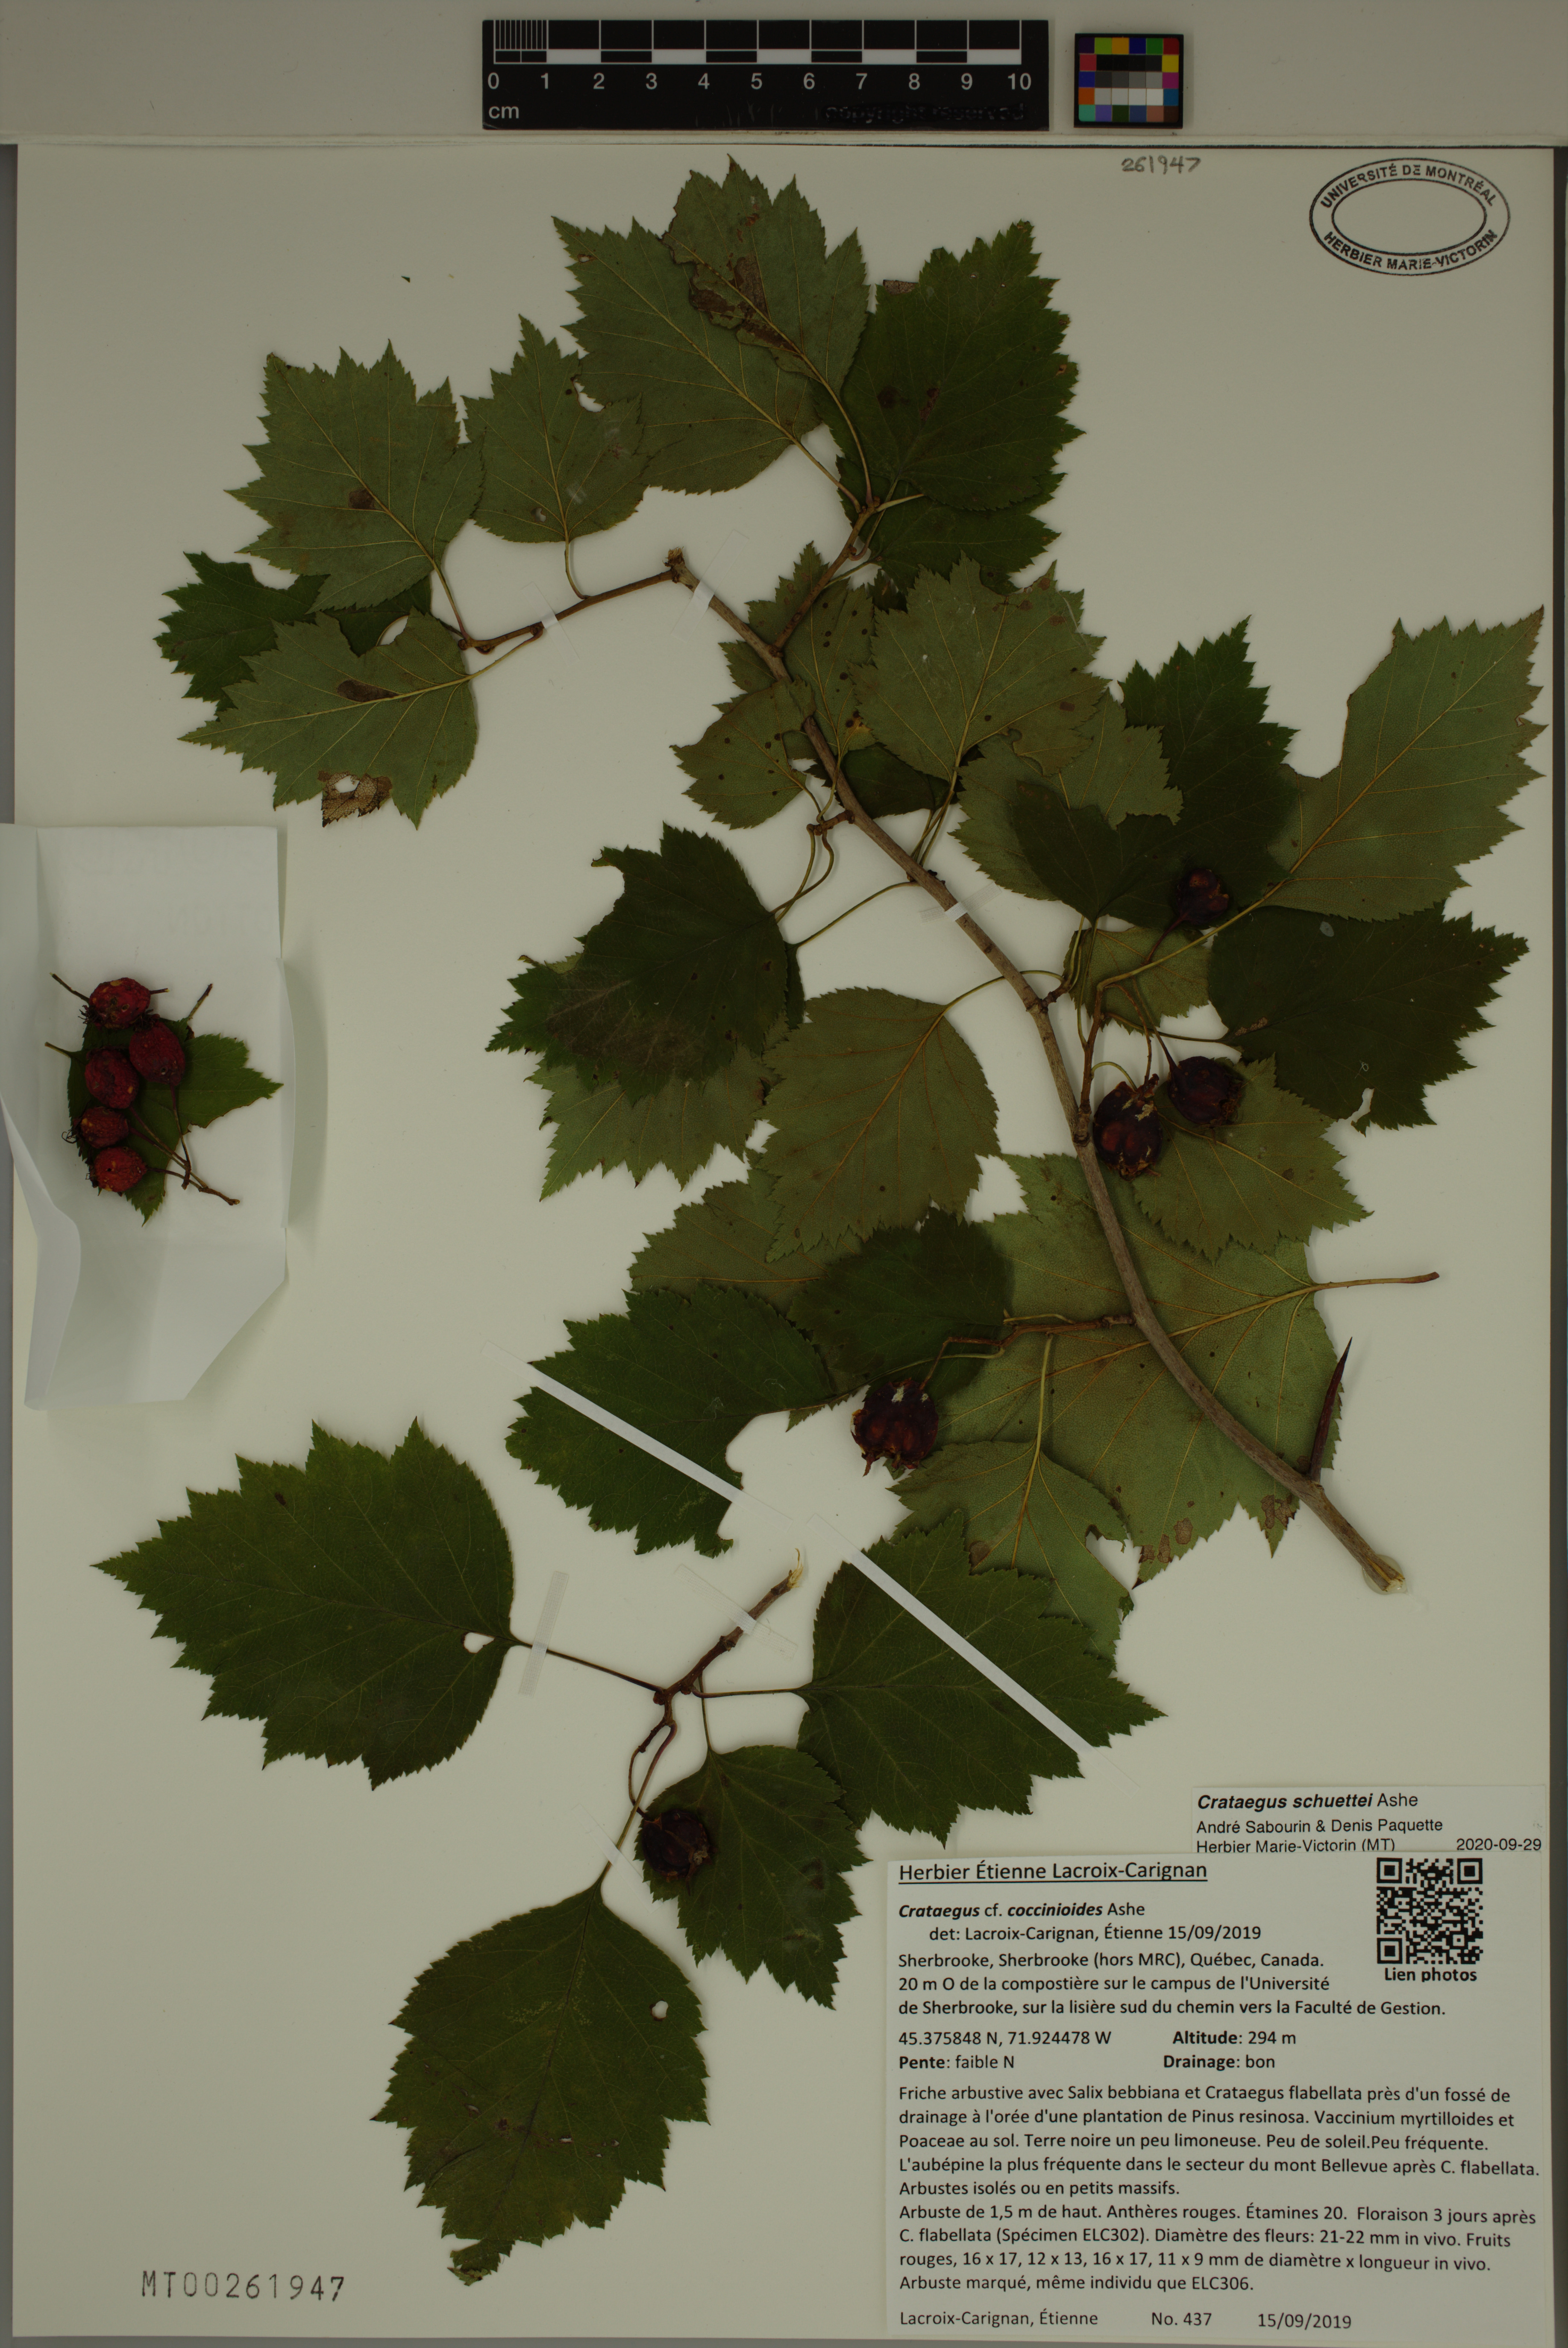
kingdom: Plantae
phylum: Tracheophyta
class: Magnoliopsida
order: Rosales
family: Rosaceae
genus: Crataegus
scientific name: Crataegus schuettei
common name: Schuette's hawthorn
